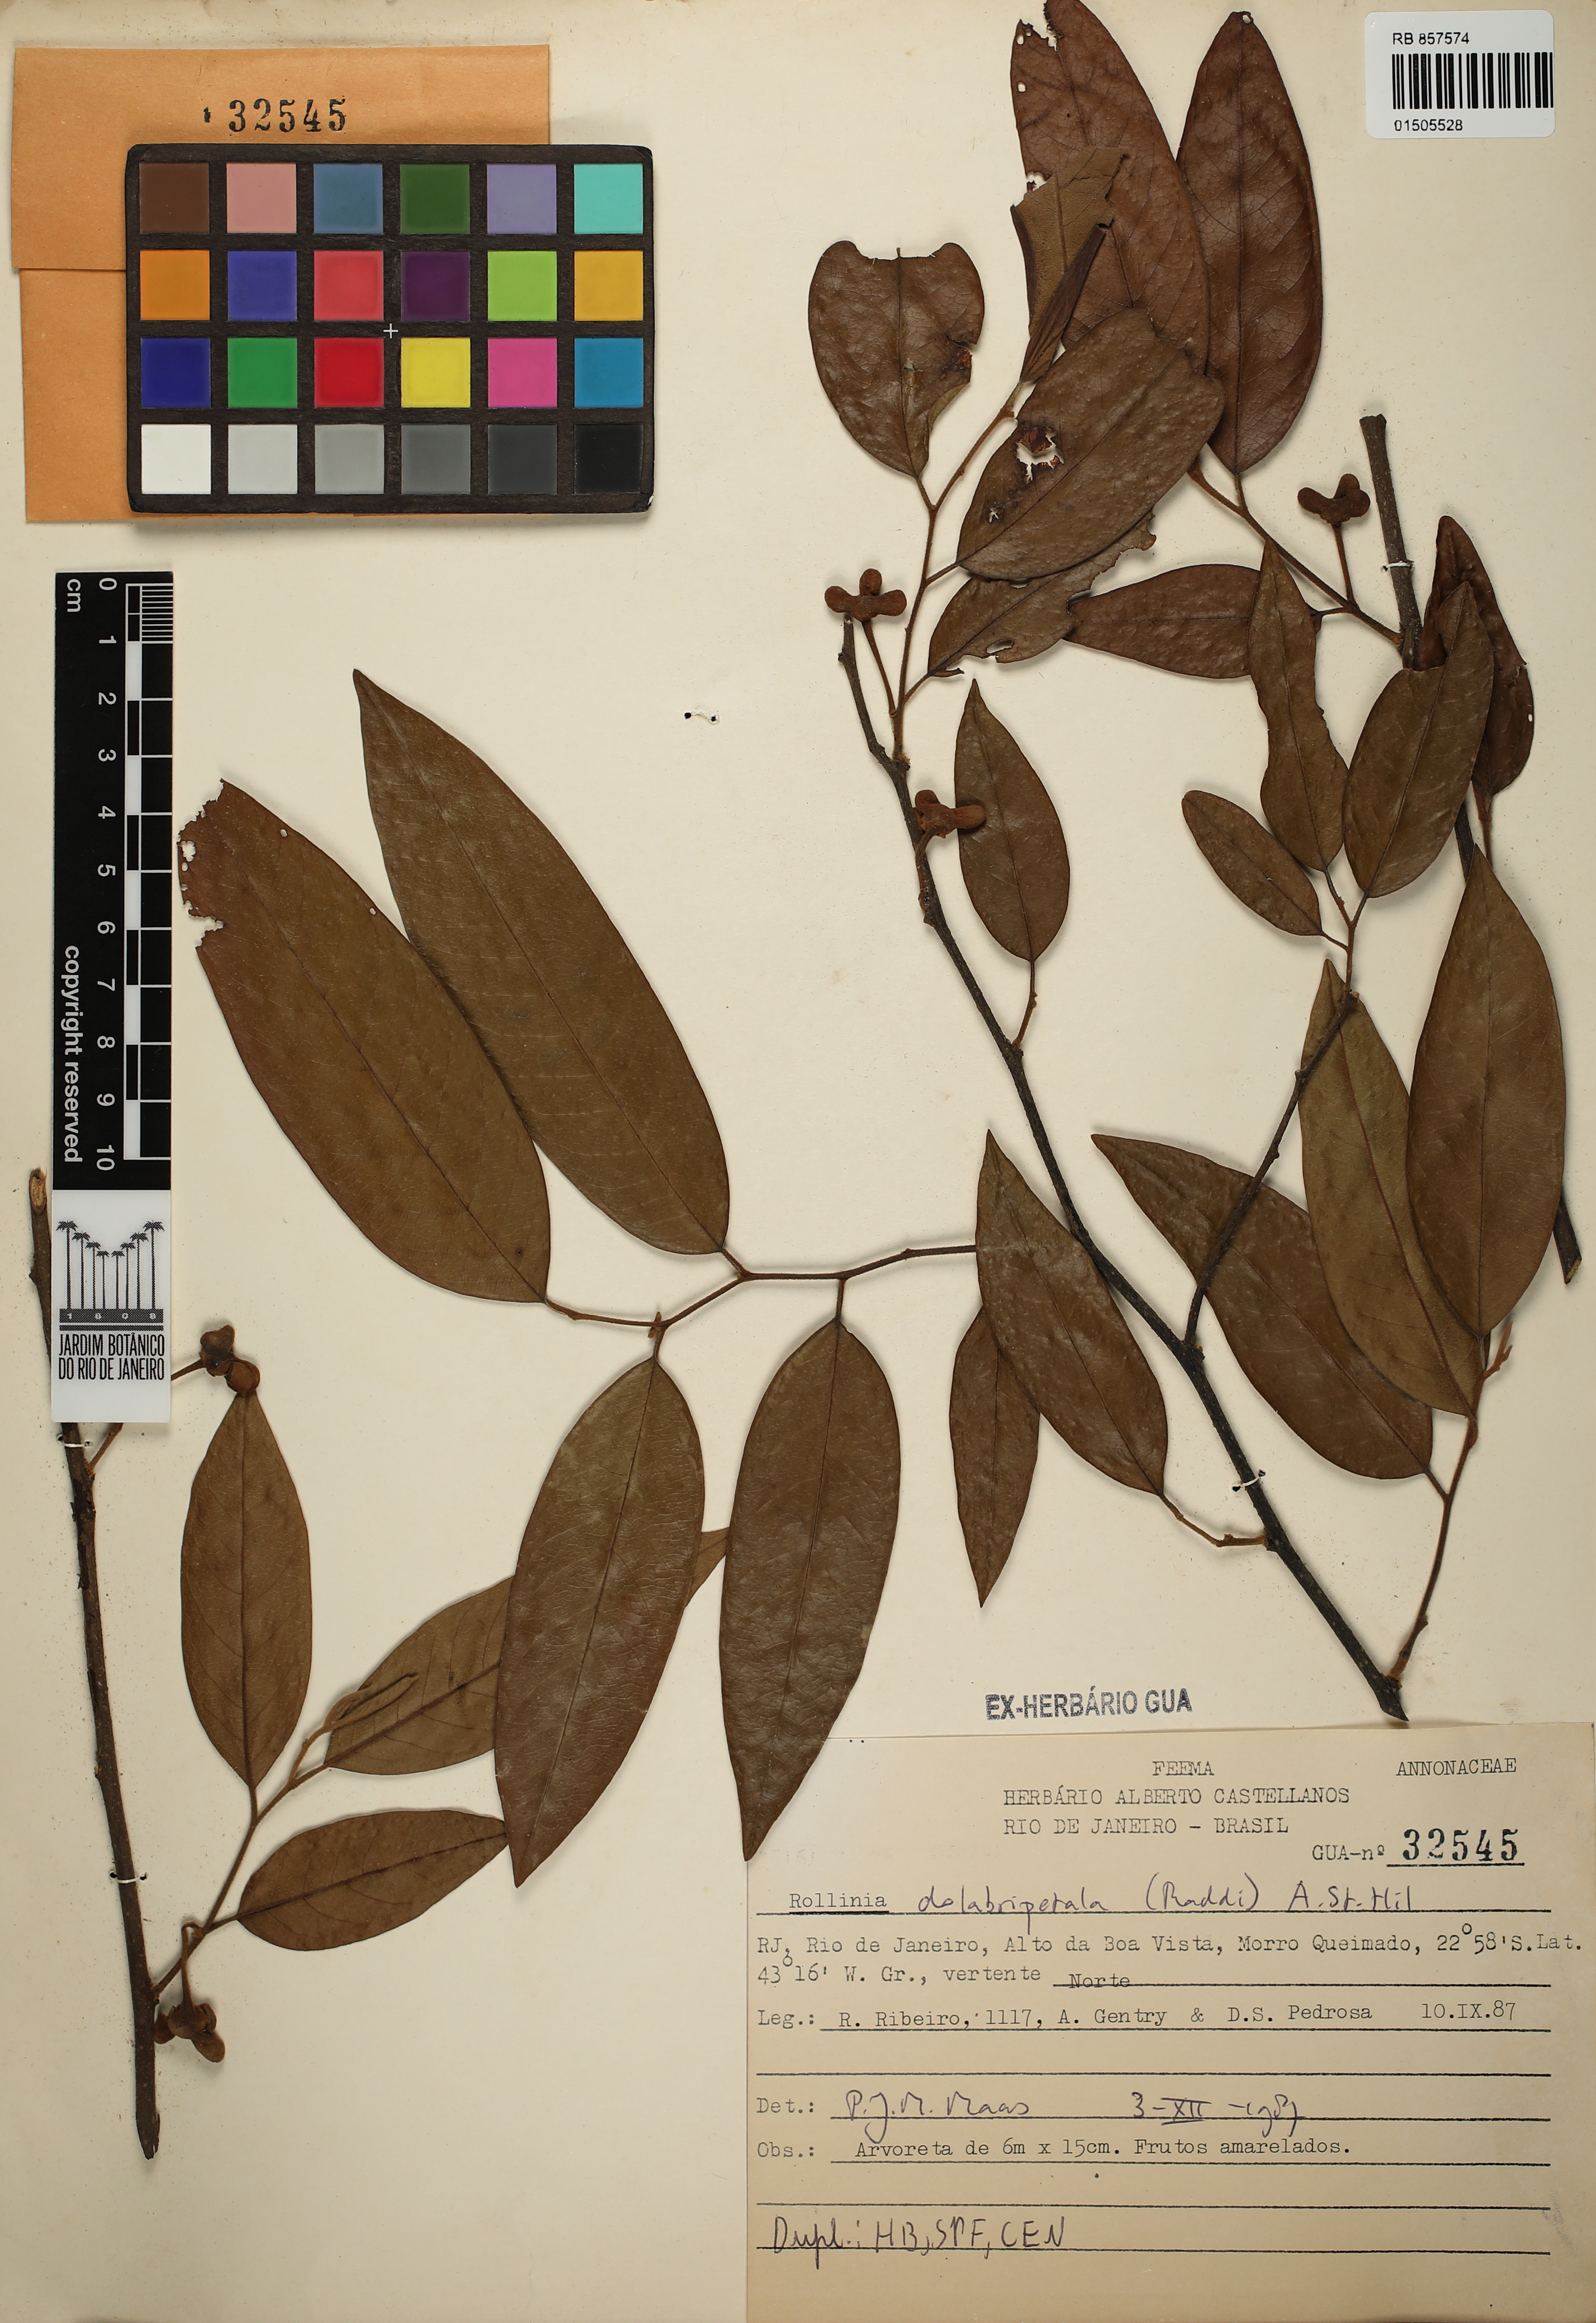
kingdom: Plantae
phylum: Tracheophyta
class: Magnoliopsida
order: Magnoliales
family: Annonaceae
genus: Annona
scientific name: Annona dolabripetala
